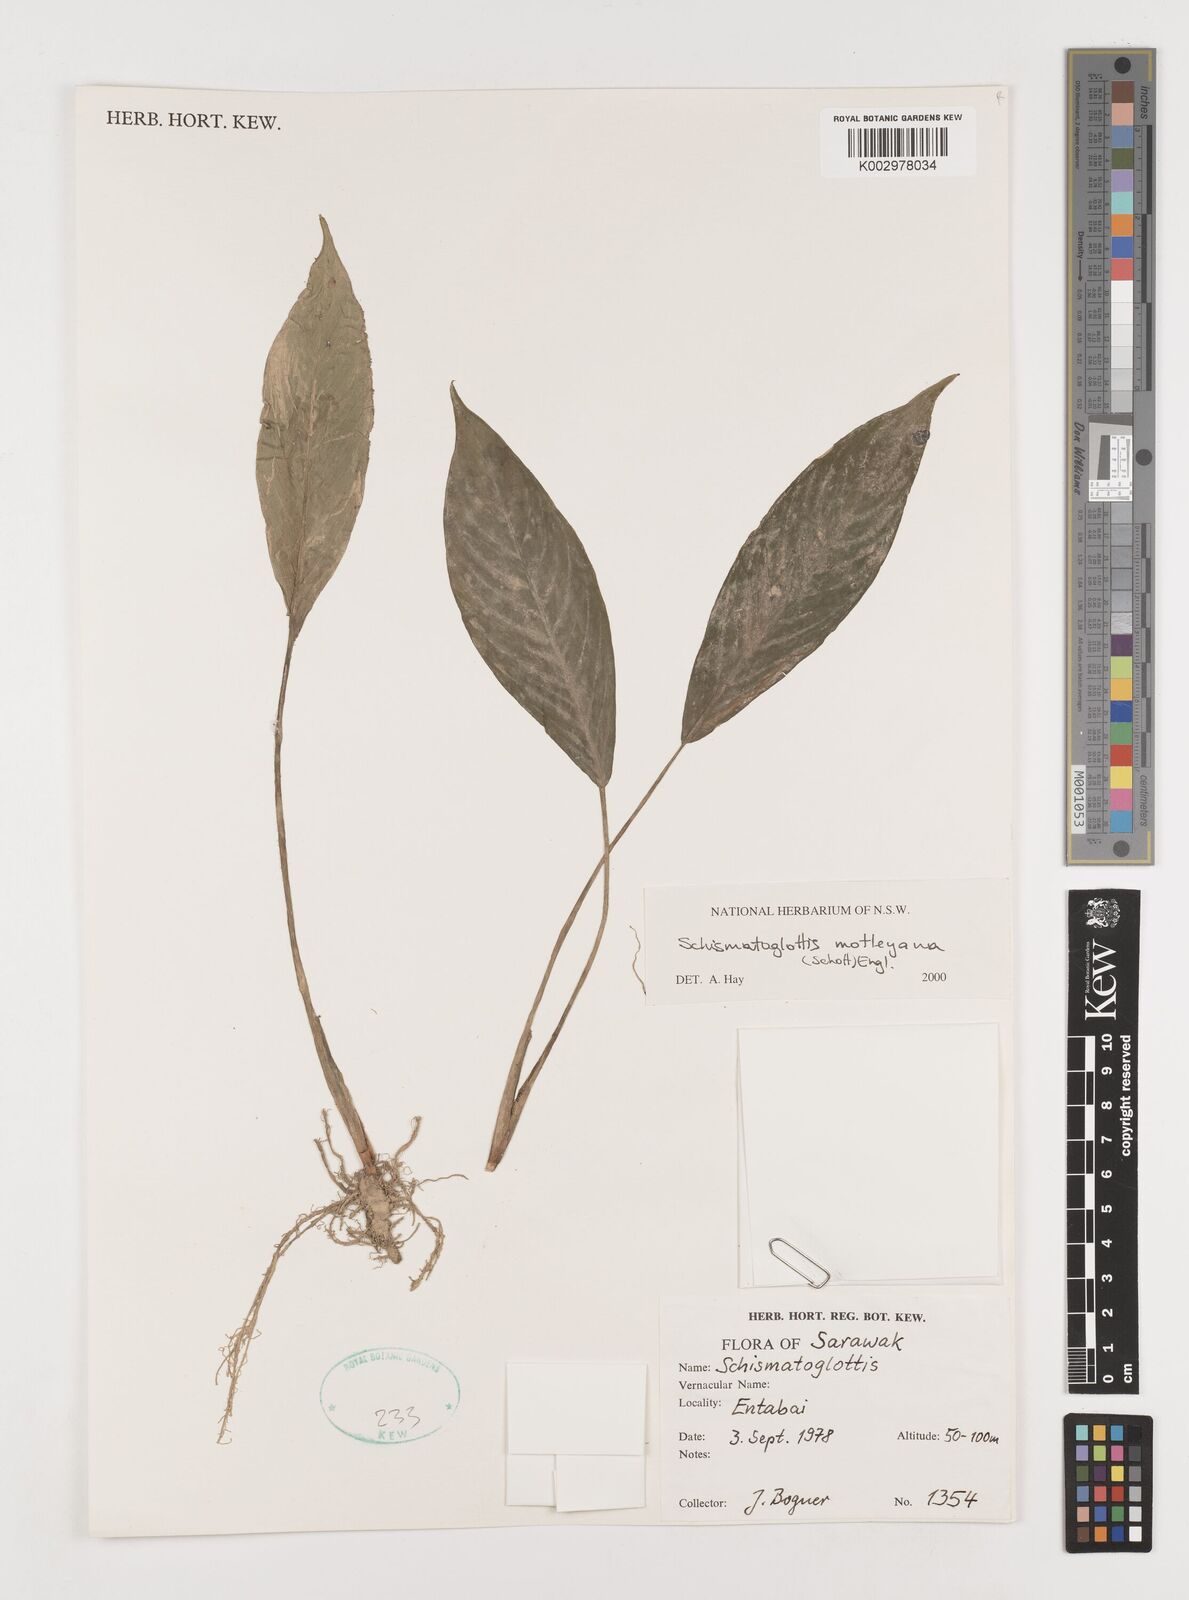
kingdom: Plantae
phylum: Tracheophyta
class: Liliopsida
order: Alismatales
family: Araceae
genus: Schismatoglottis
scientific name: Schismatoglottis motleyana
